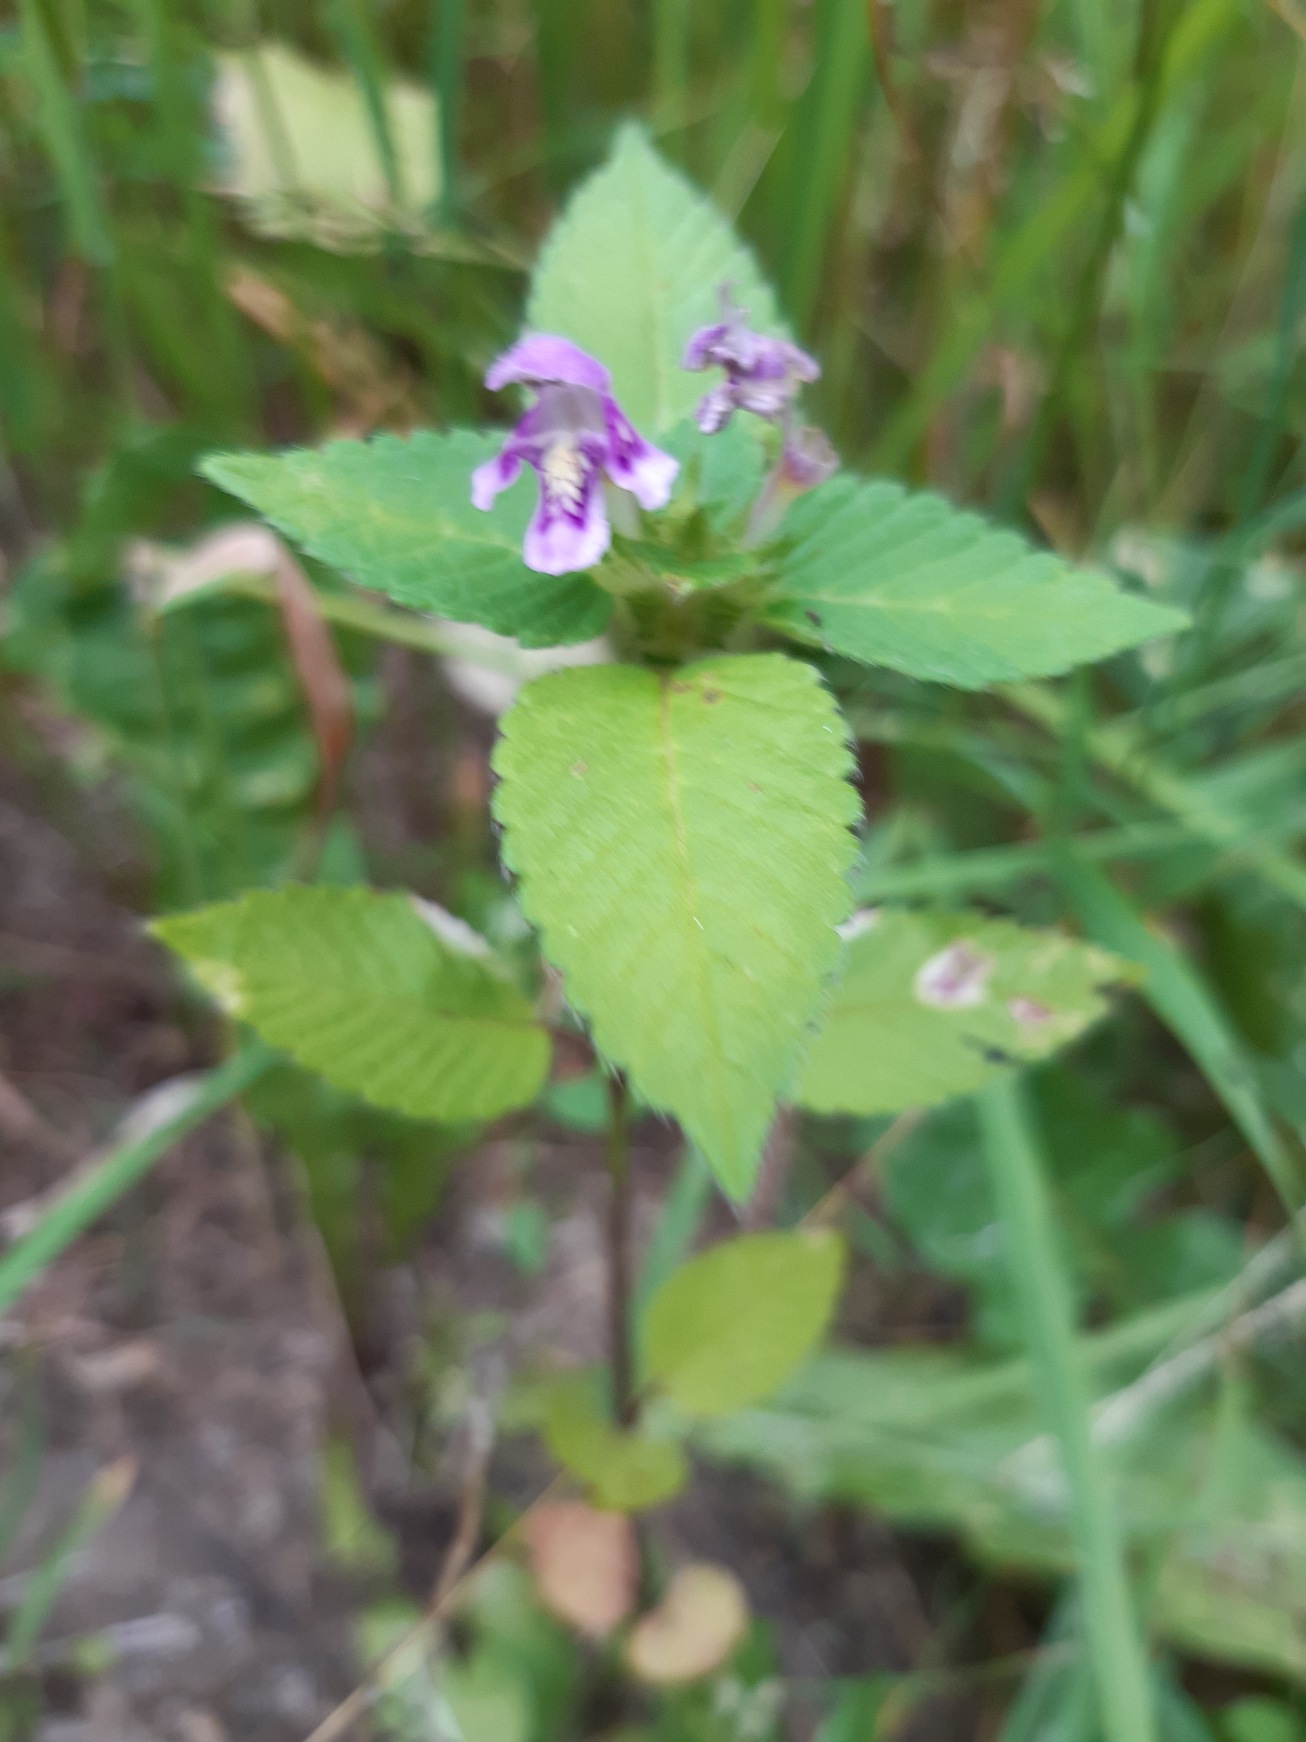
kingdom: Plantae
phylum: Tracheophyta
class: Magnoliopsida
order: Lamiales
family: Lamiaceae
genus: Galeopsis
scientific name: Galeopsis tetrahit
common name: Almindelig hanekro
